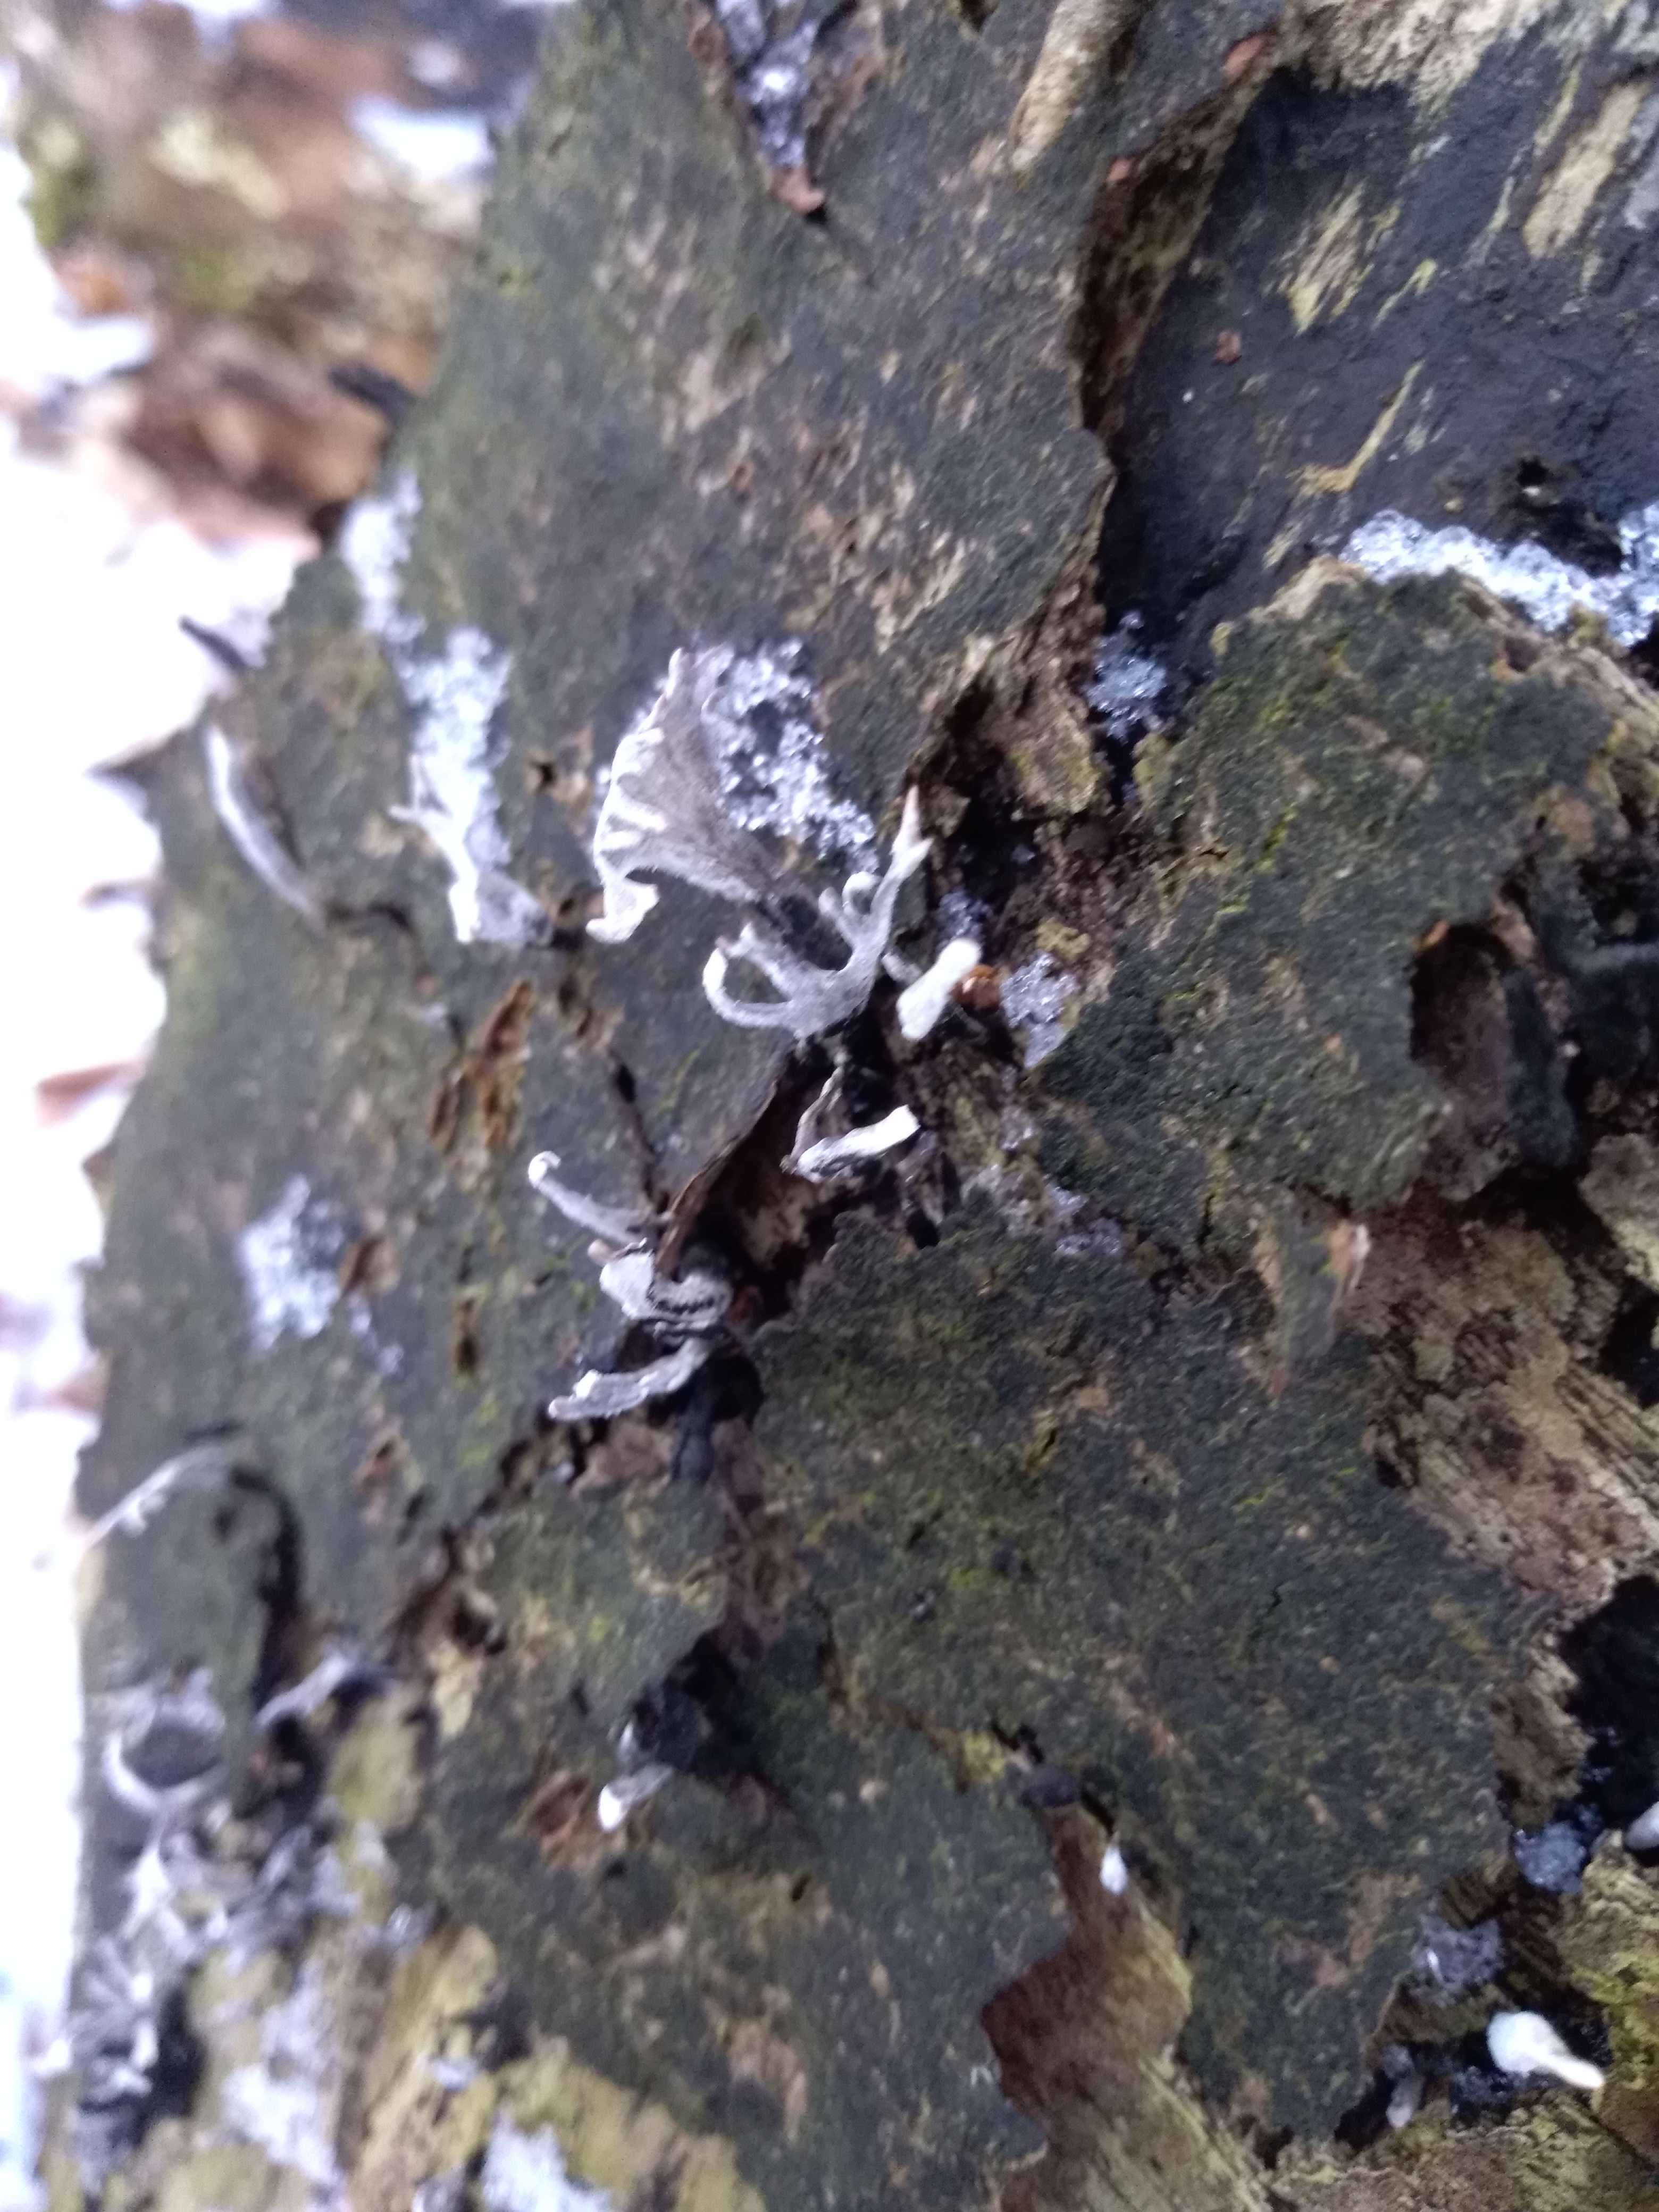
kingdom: Fungi
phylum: Ascomycota
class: Sordariomycetes
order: Xylariales
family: Xylariaceae
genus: Xylaria
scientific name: Xylaria hypoxylon
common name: grenet stødsvamp
